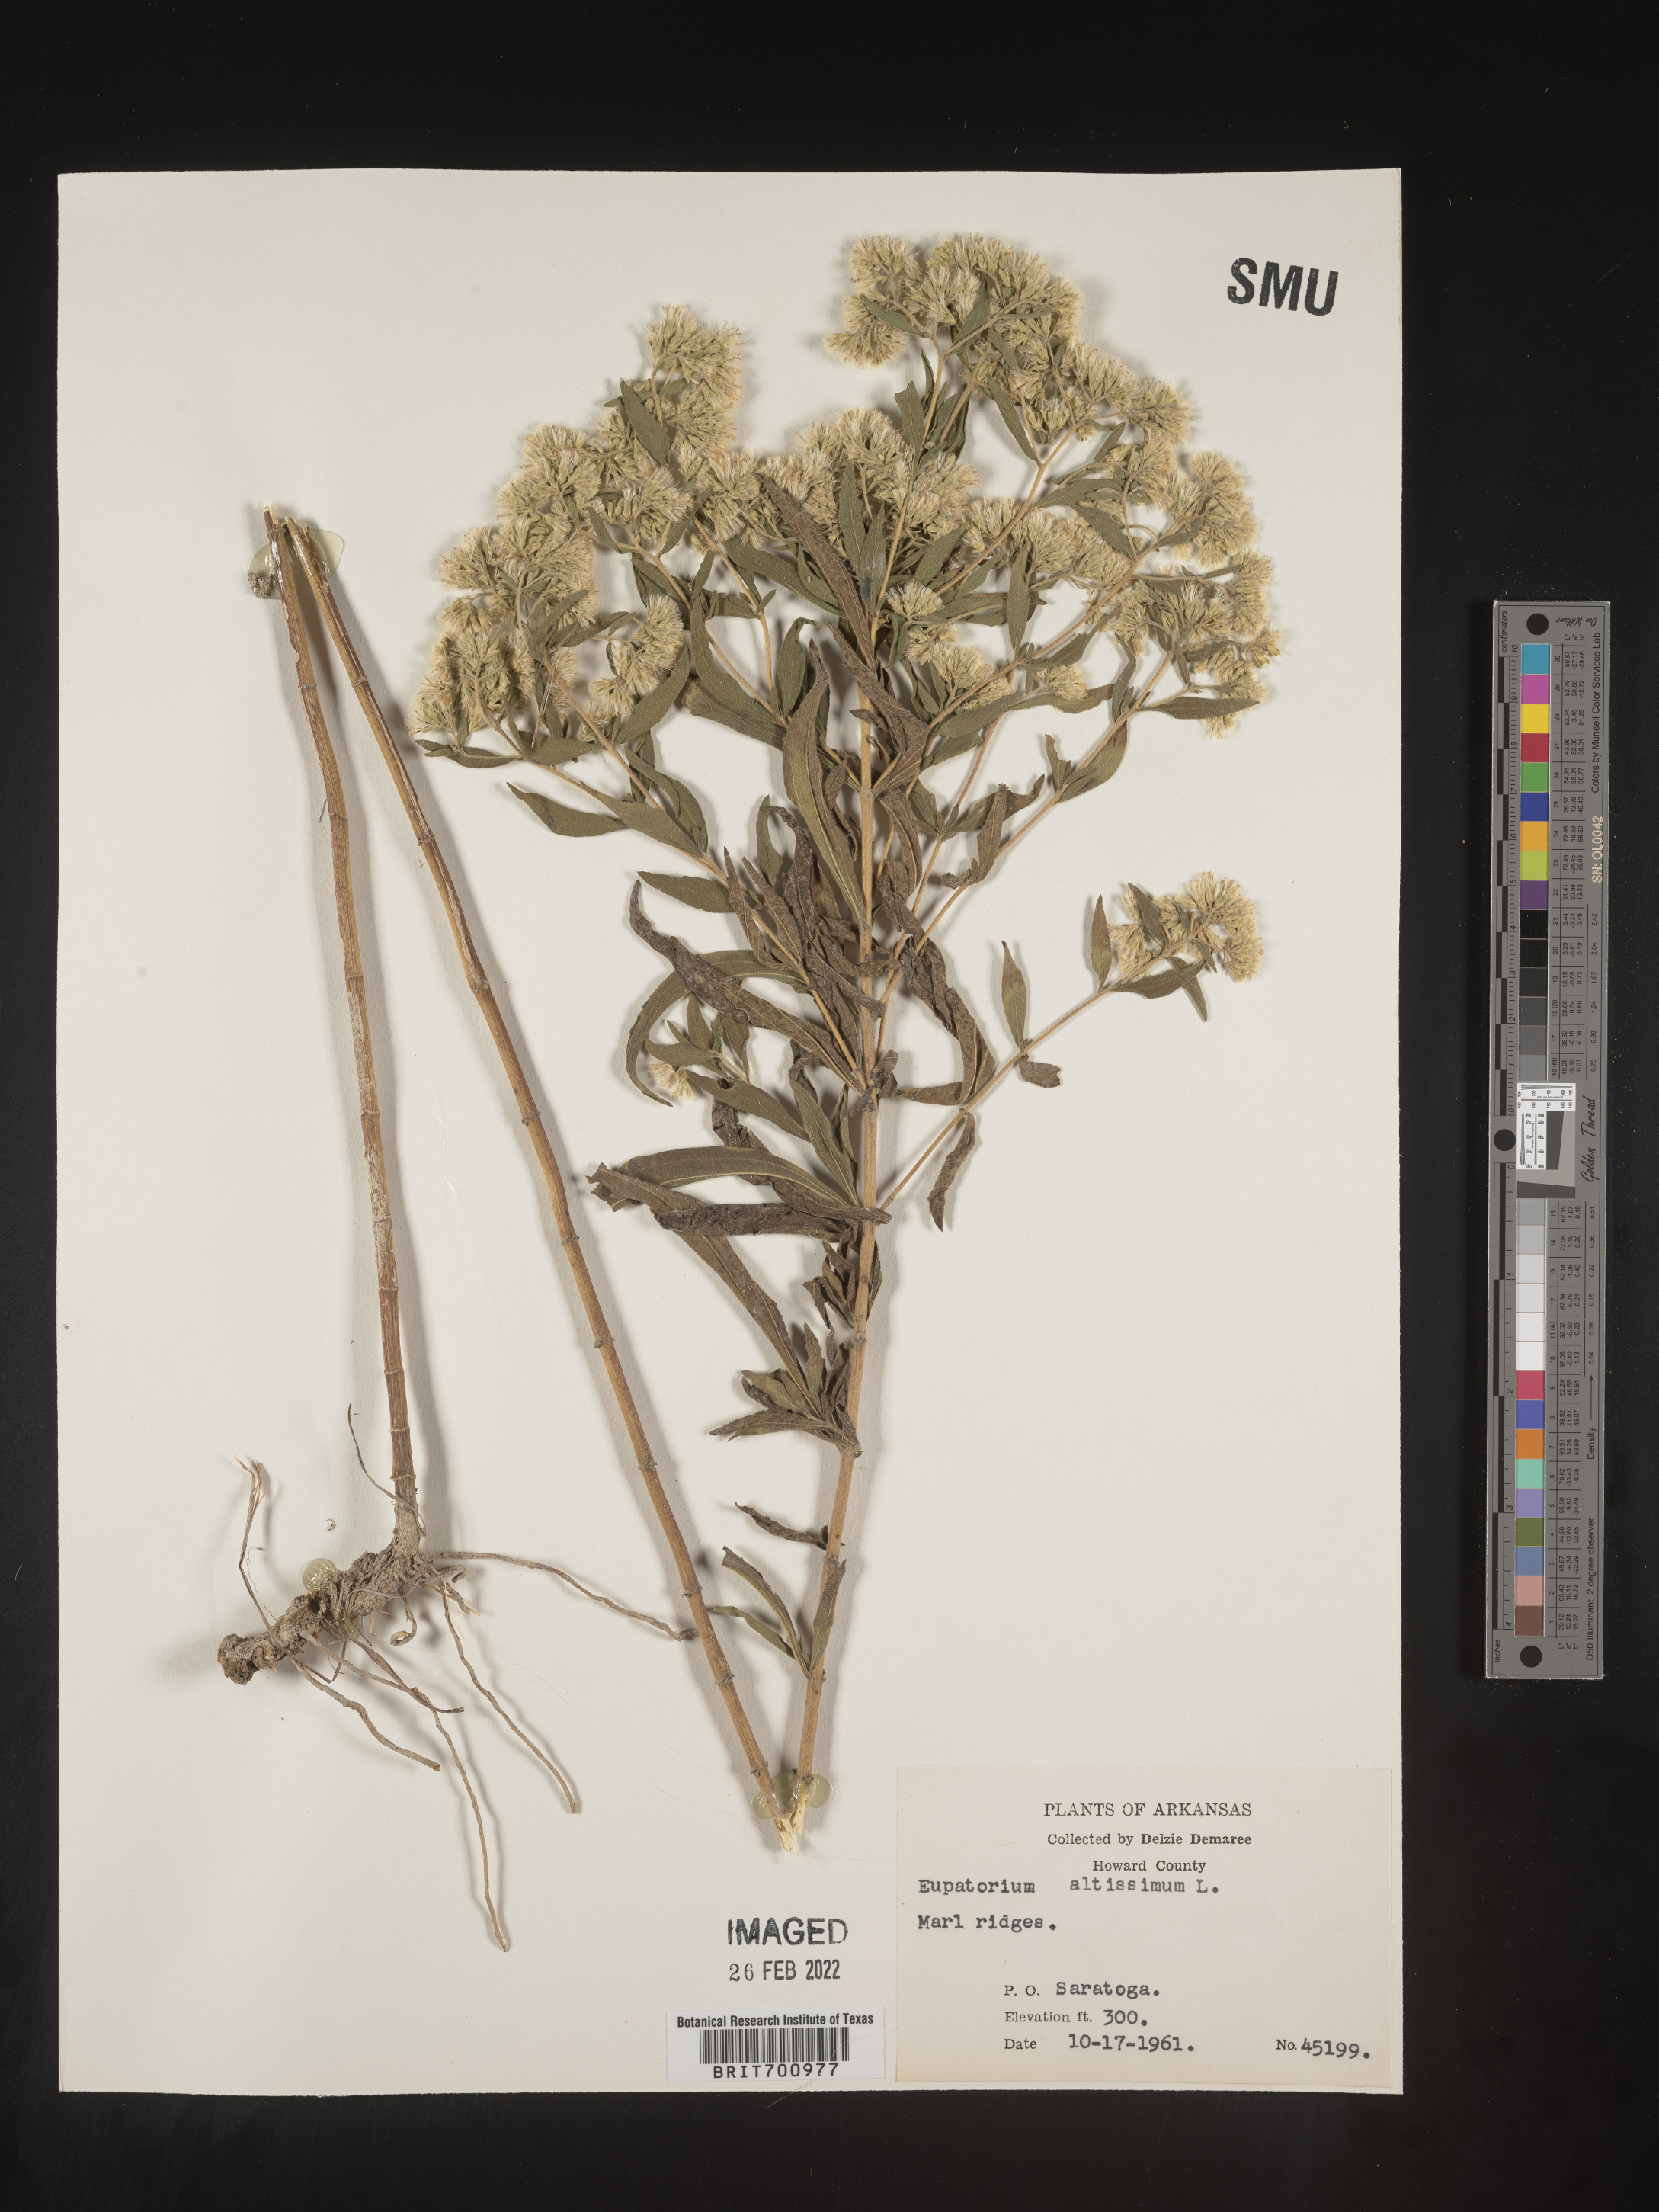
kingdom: Plantae
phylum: Tracheophyta
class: Magnoliopsida
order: Asterales
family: Asteraceae
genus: Eupatorium
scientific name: Eupatorium altissimum
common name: Tall thoroughwort
